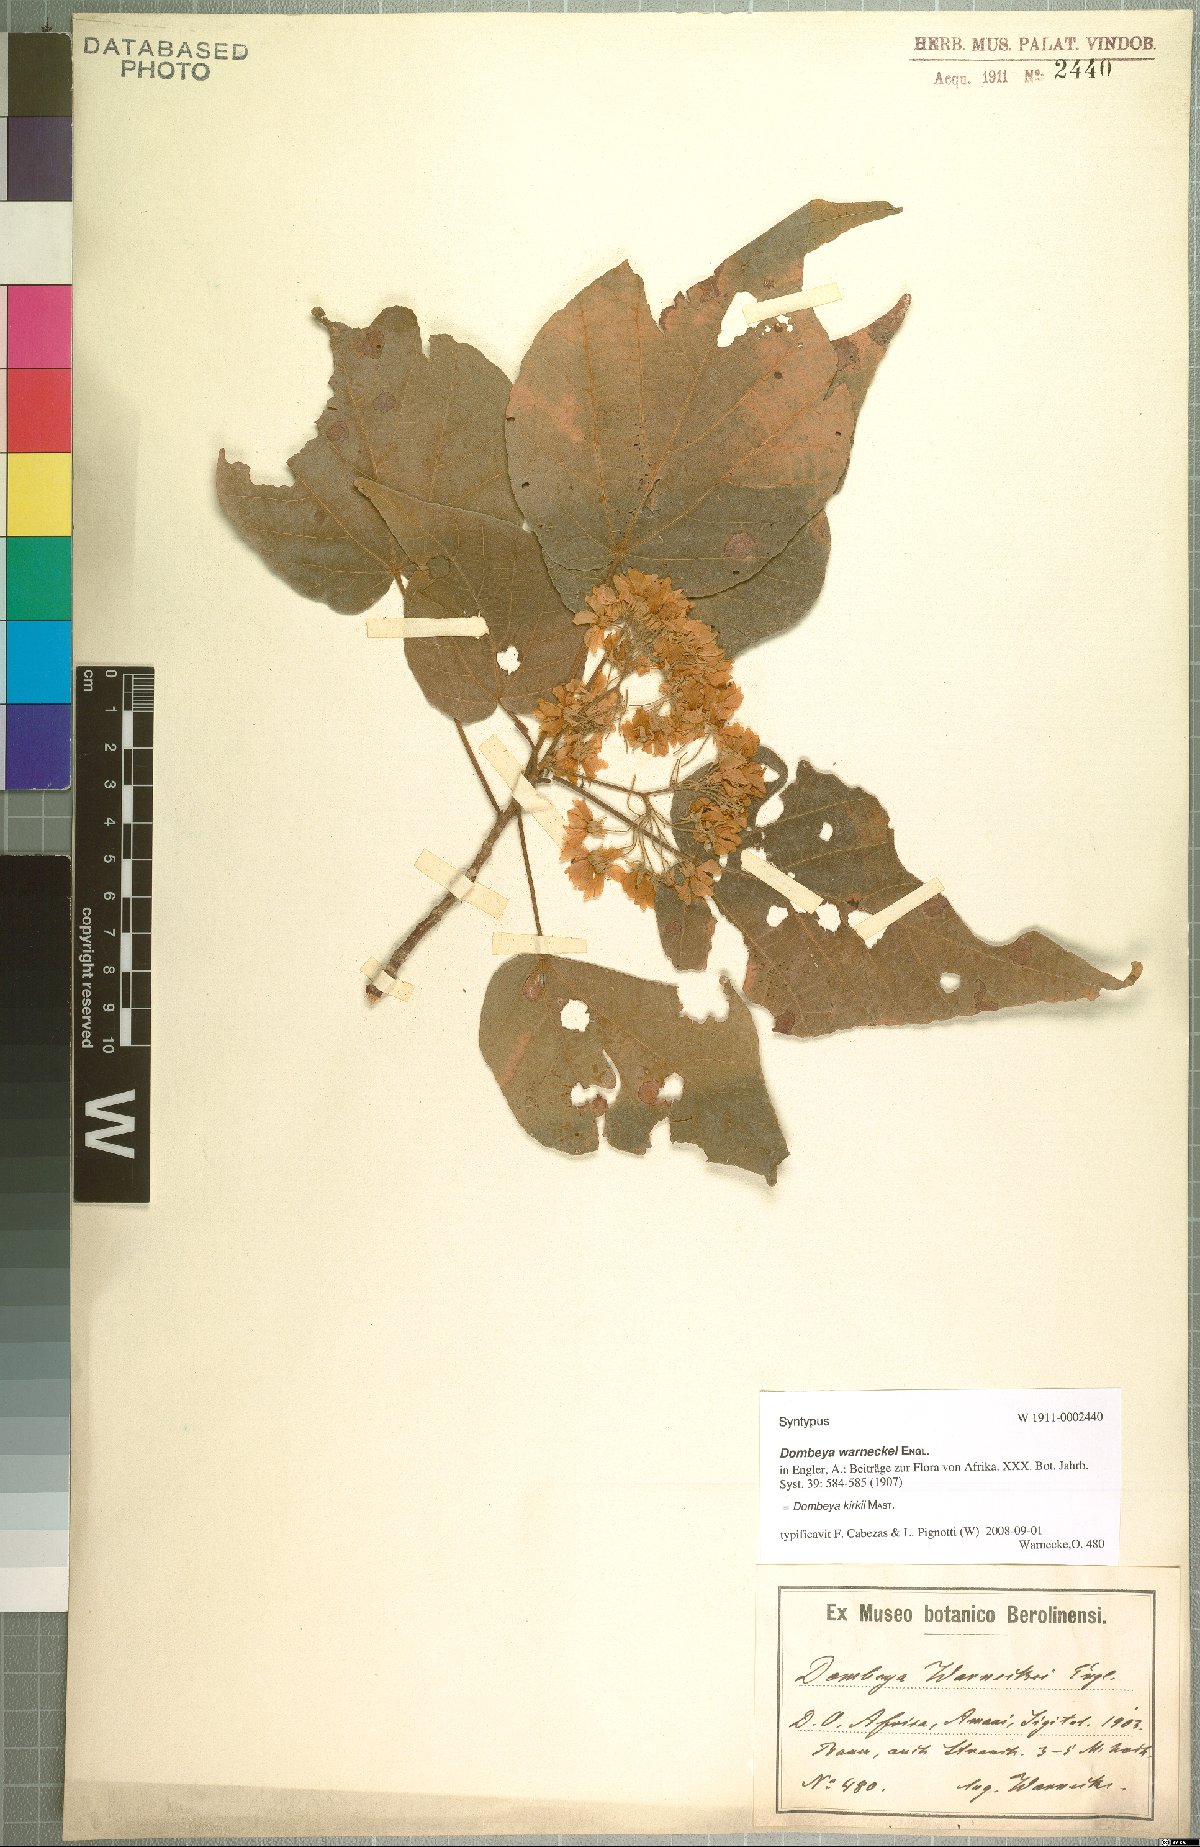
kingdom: Plantae
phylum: Tracheophyta
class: Magnoliopsida
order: Malvales
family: Malvaceae
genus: Dombeya
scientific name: Dombeya kirkii
